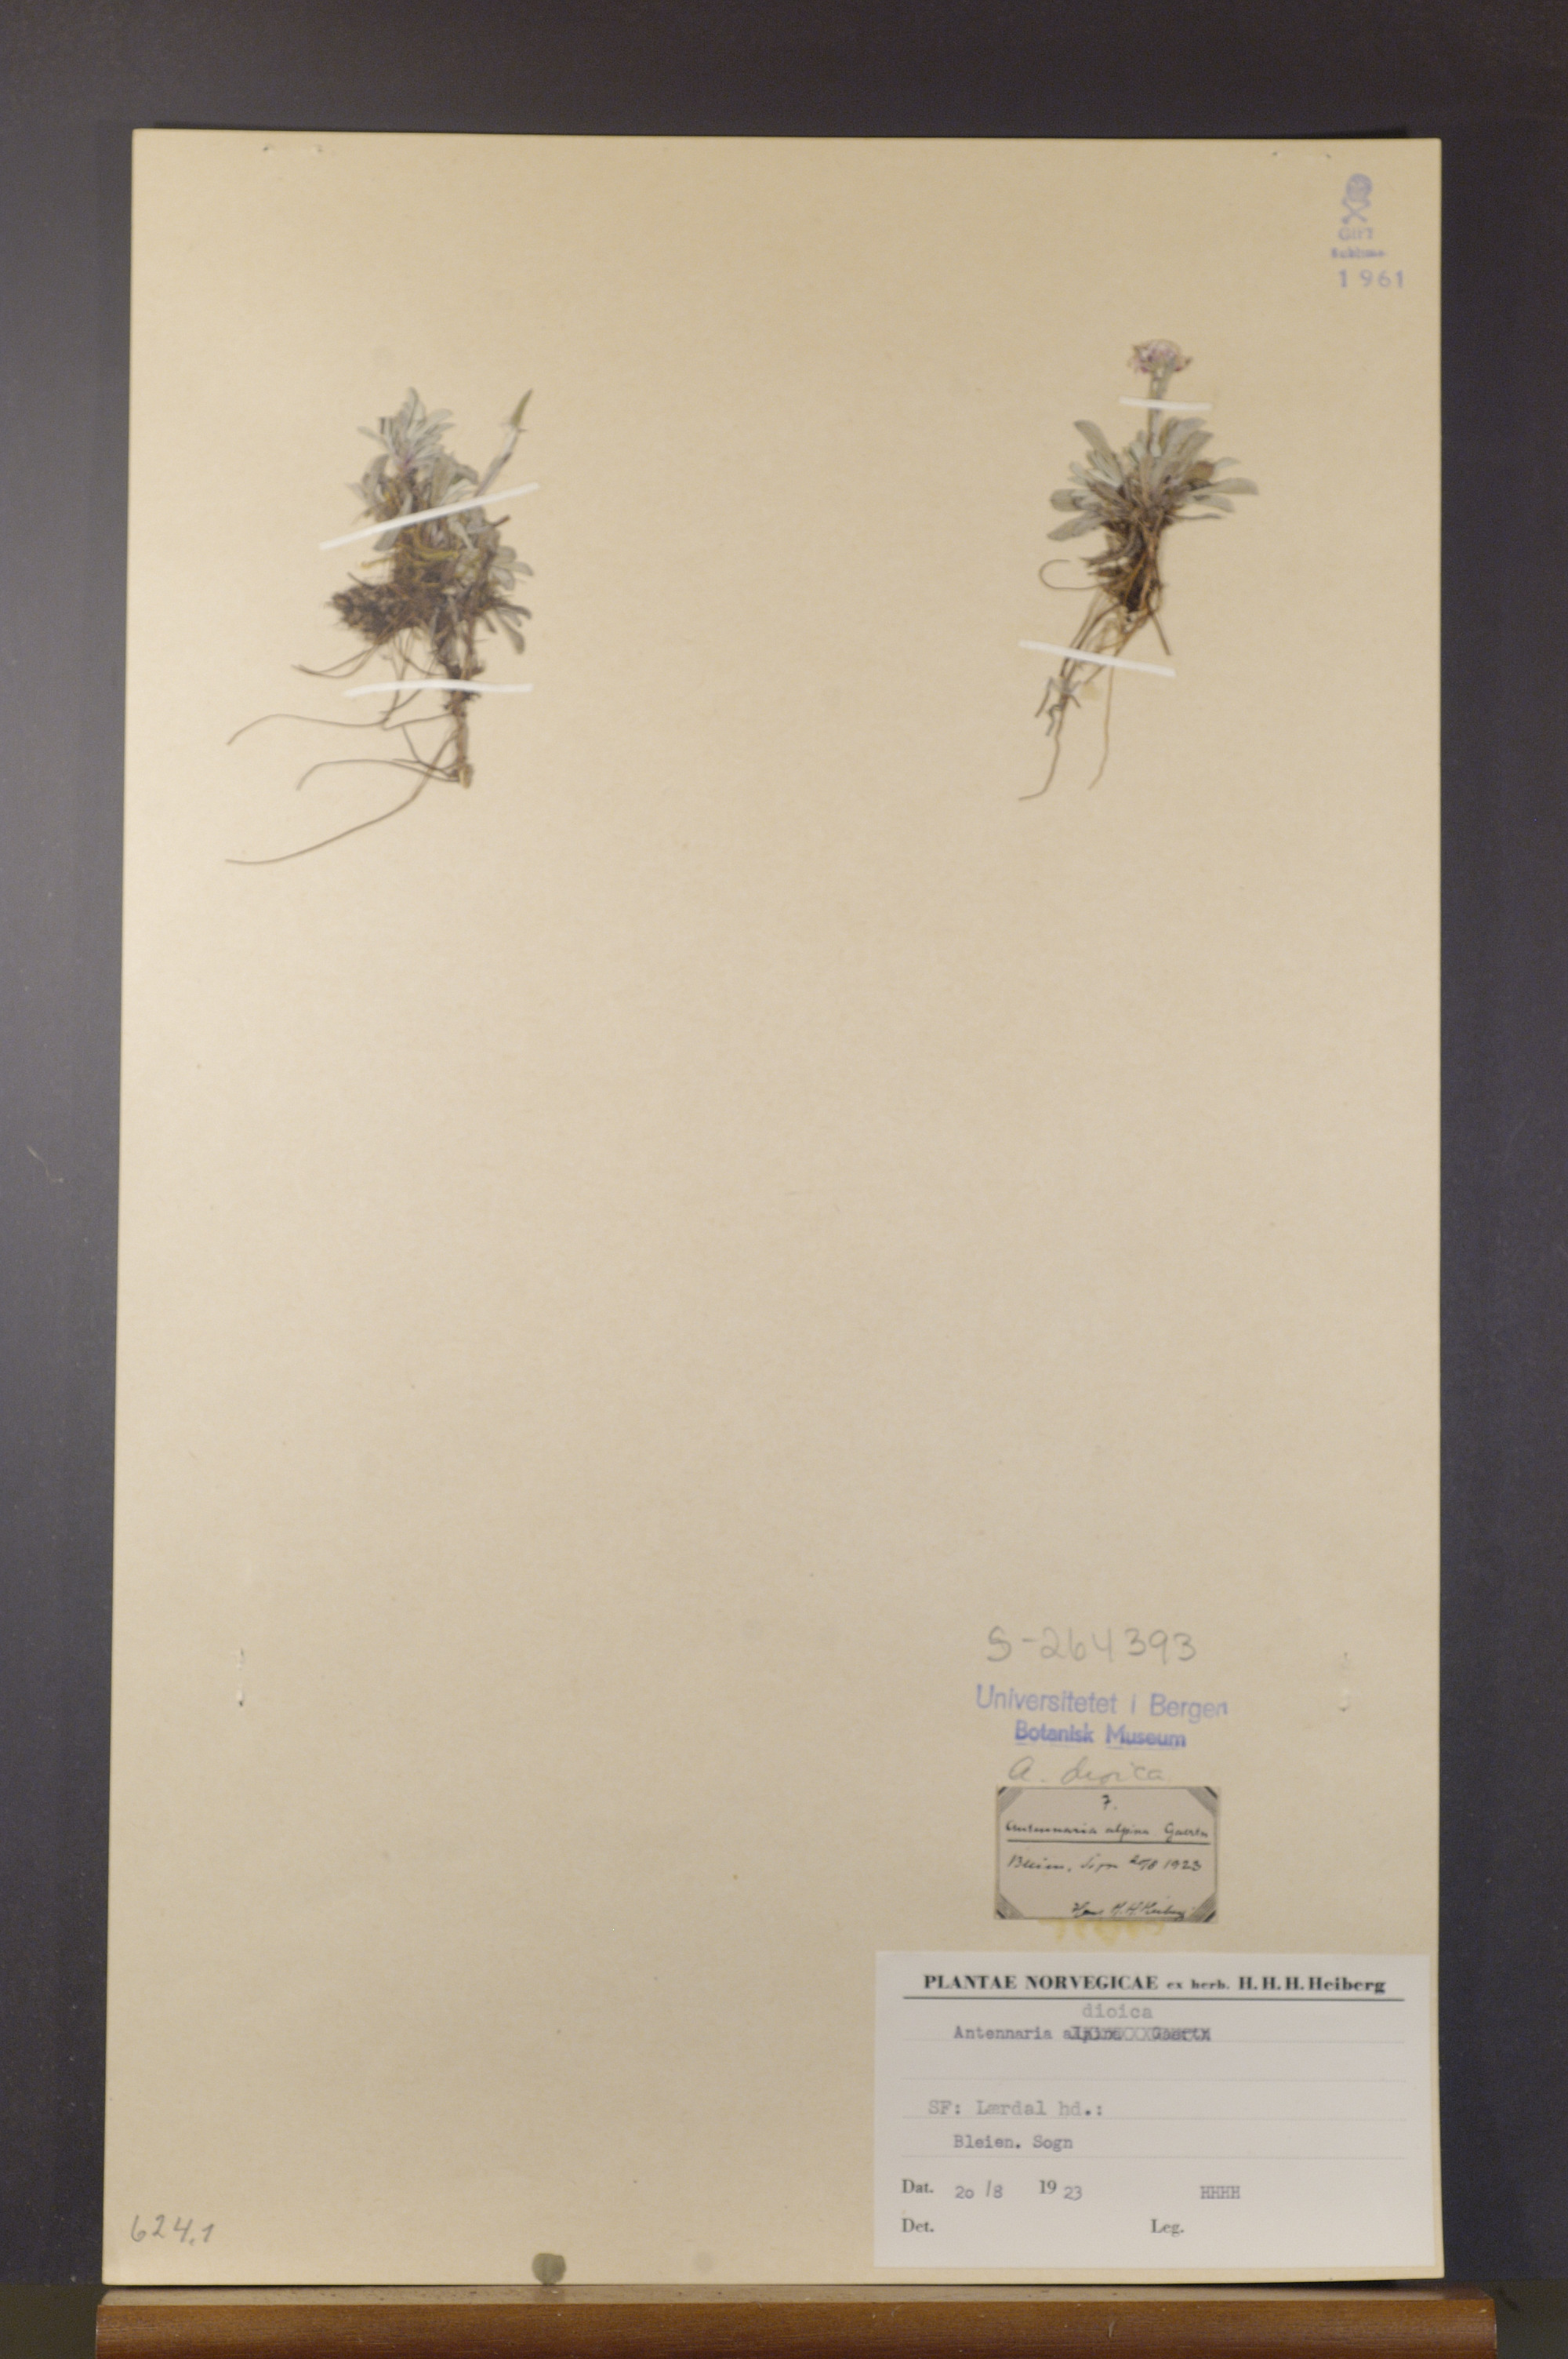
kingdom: Plantae
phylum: Tracheophyta
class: Magnoliopsida
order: Asterales
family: Asteraceae
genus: Antennaria
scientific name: Antennaria dioica
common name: Mountain everlasting
